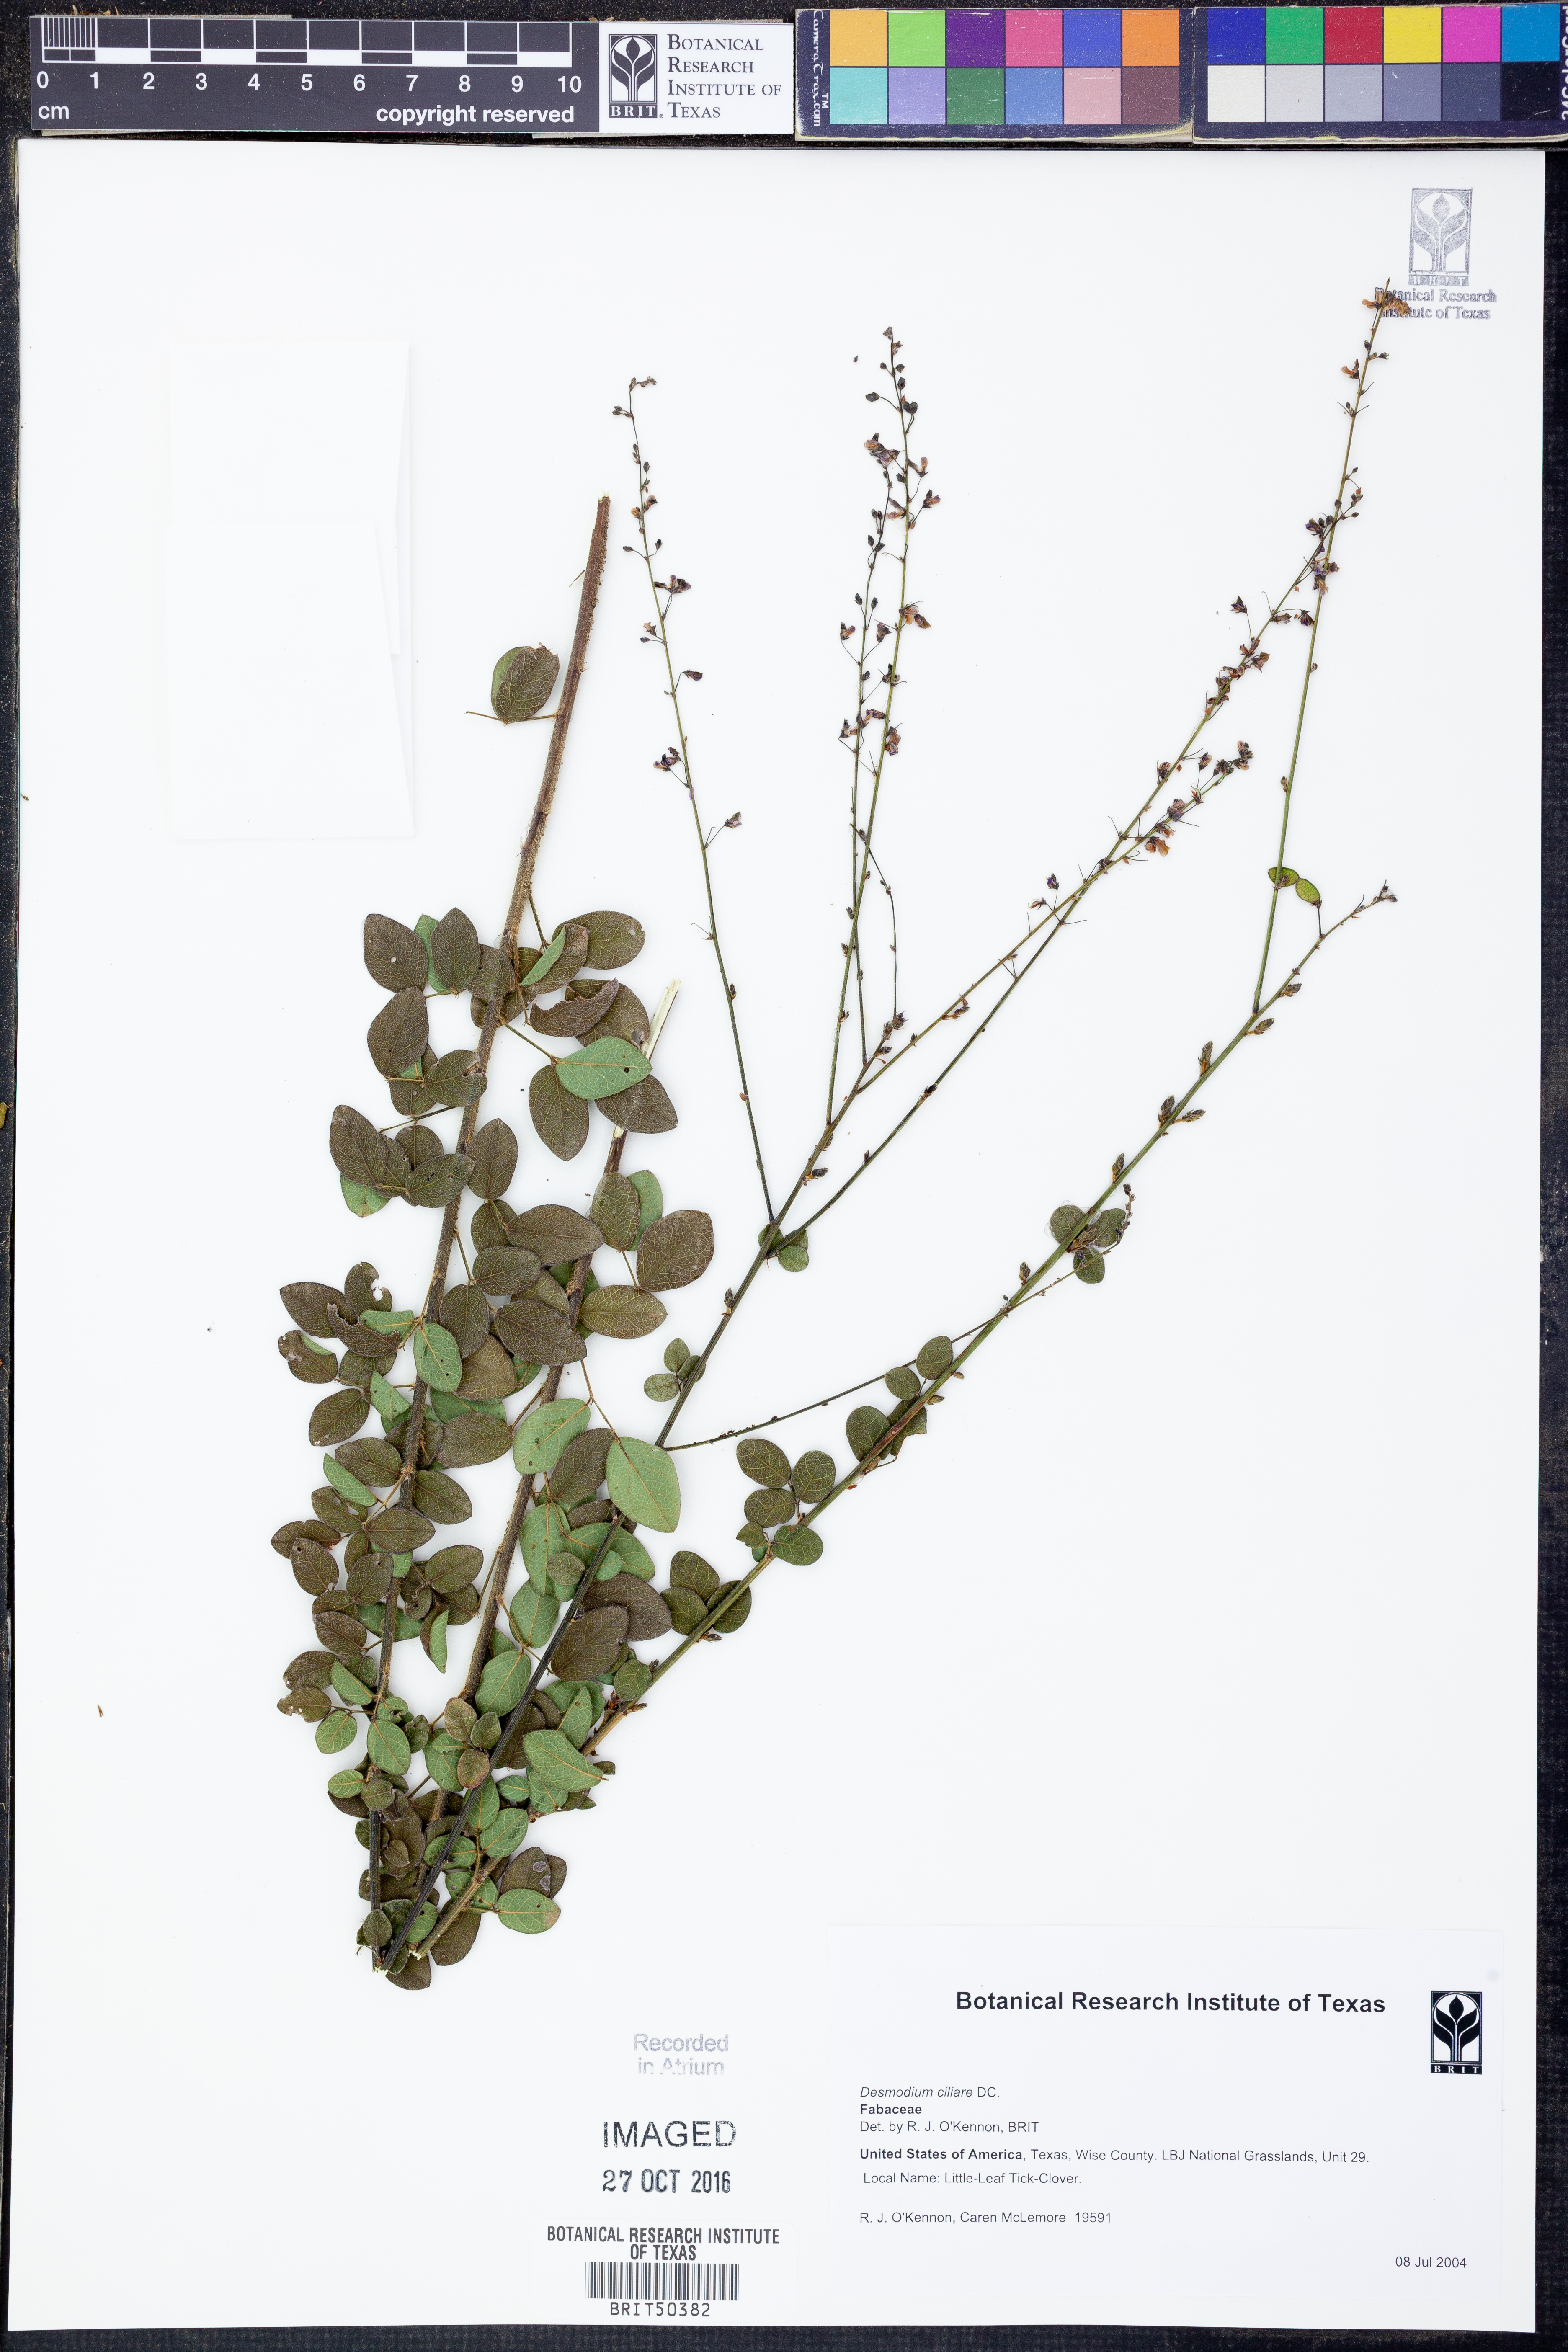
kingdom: Plantae
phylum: Tracheophyta
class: Magnoliopsida
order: Fabales
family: Fabaceae
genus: Desmodium
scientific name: Desmodium ciliare
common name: Hairy small-leaf ticktrefoil
